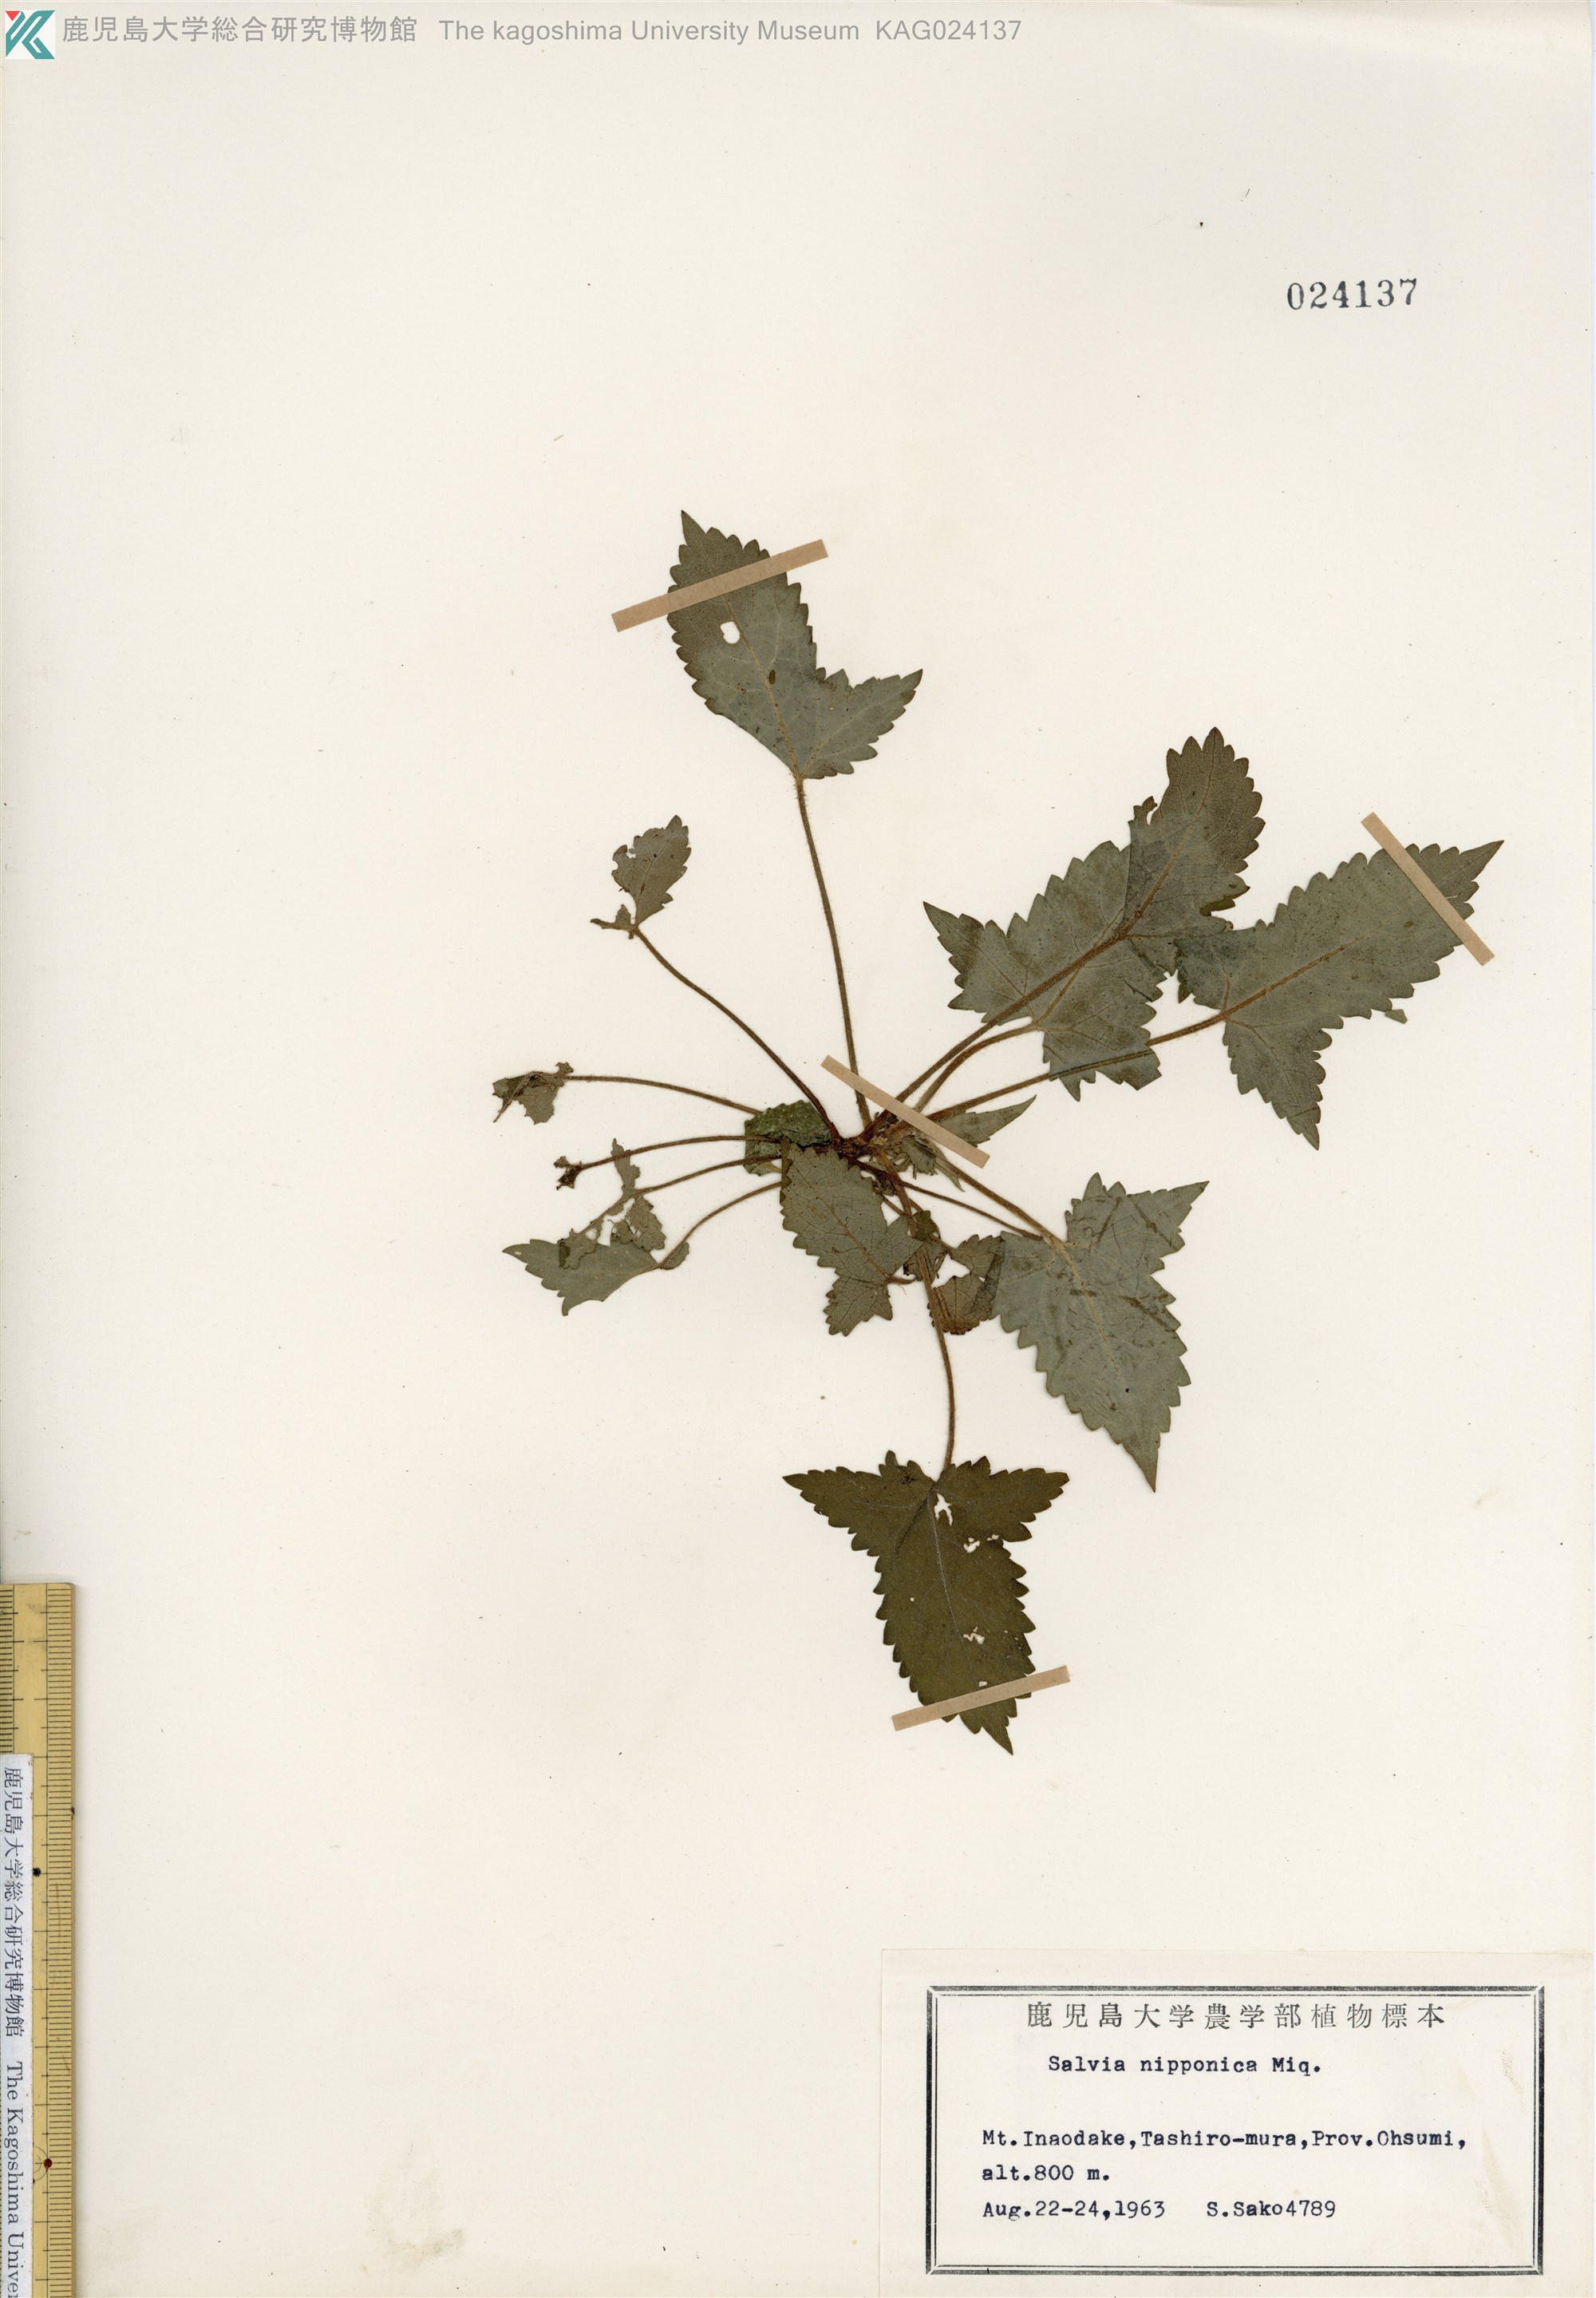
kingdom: Plantae
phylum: Tracheophyta
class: Magnoliopsida
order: Lamiales
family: Lamiaceae
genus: Salvia
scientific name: Salvia nipponica
